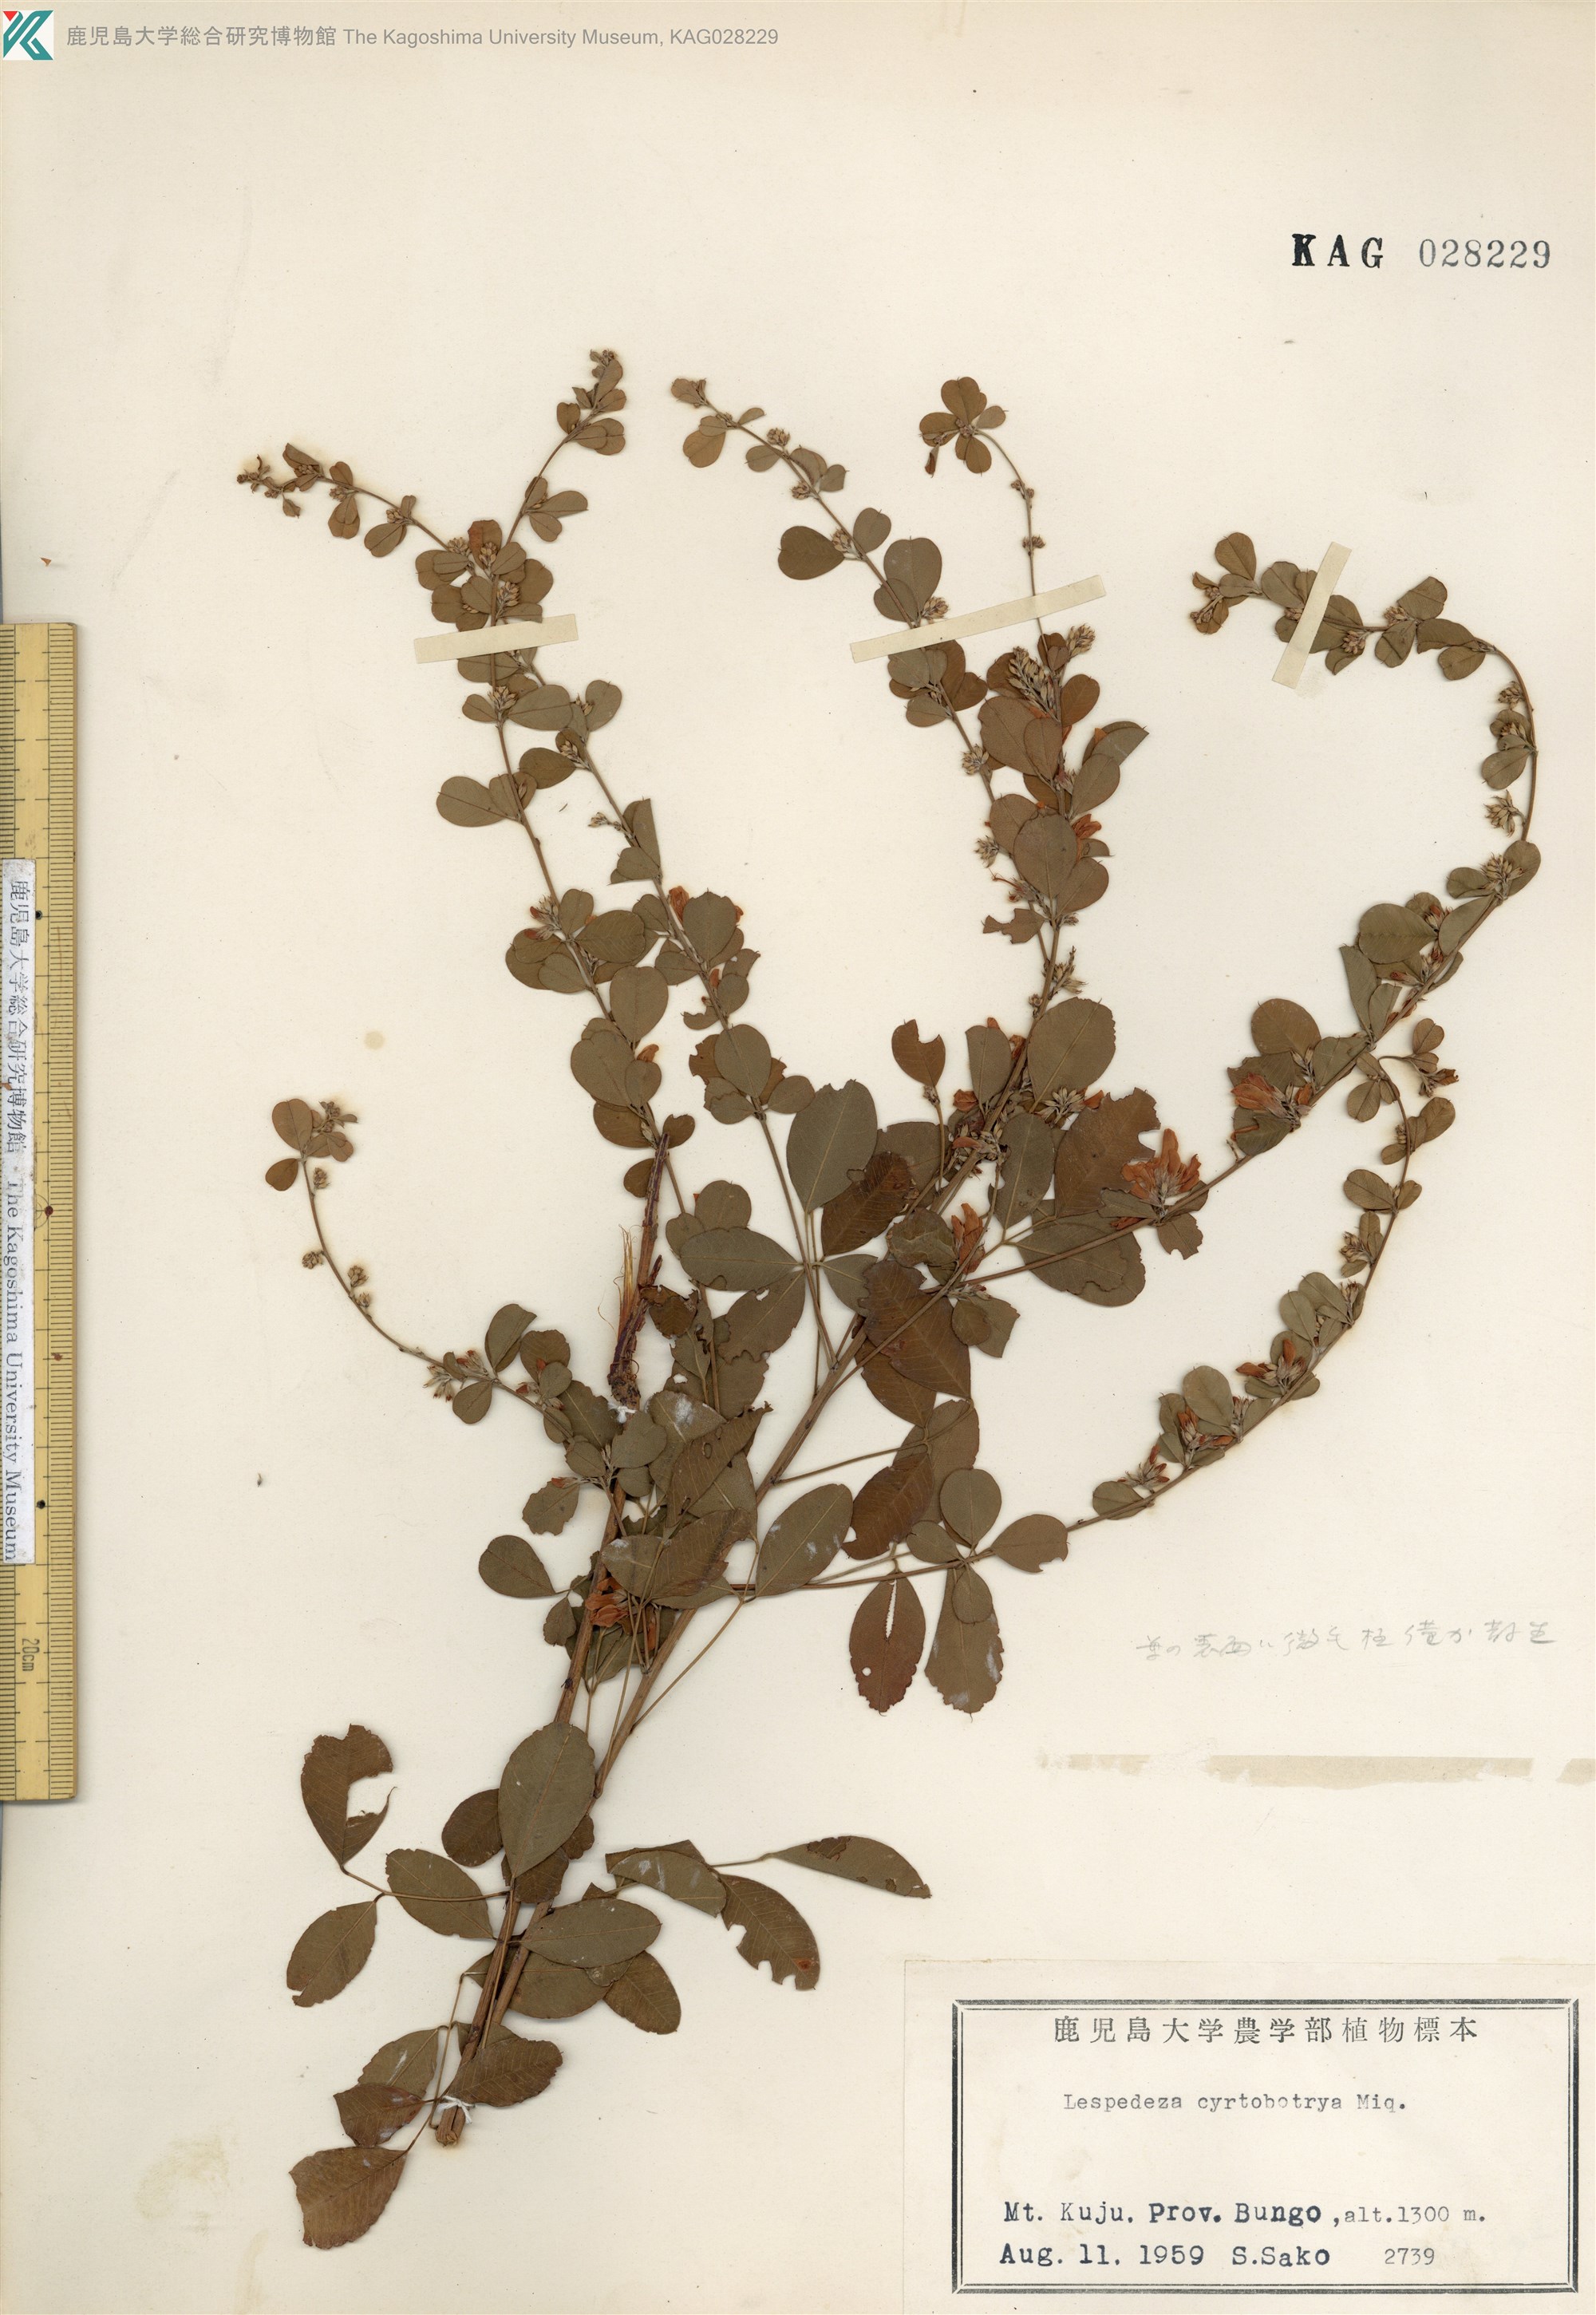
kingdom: Plantae
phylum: Tracheophyta
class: Magnoliopsida
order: Fabales
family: Fabaceae
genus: Lespedeza
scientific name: Lespedeza cyrtobotrya
